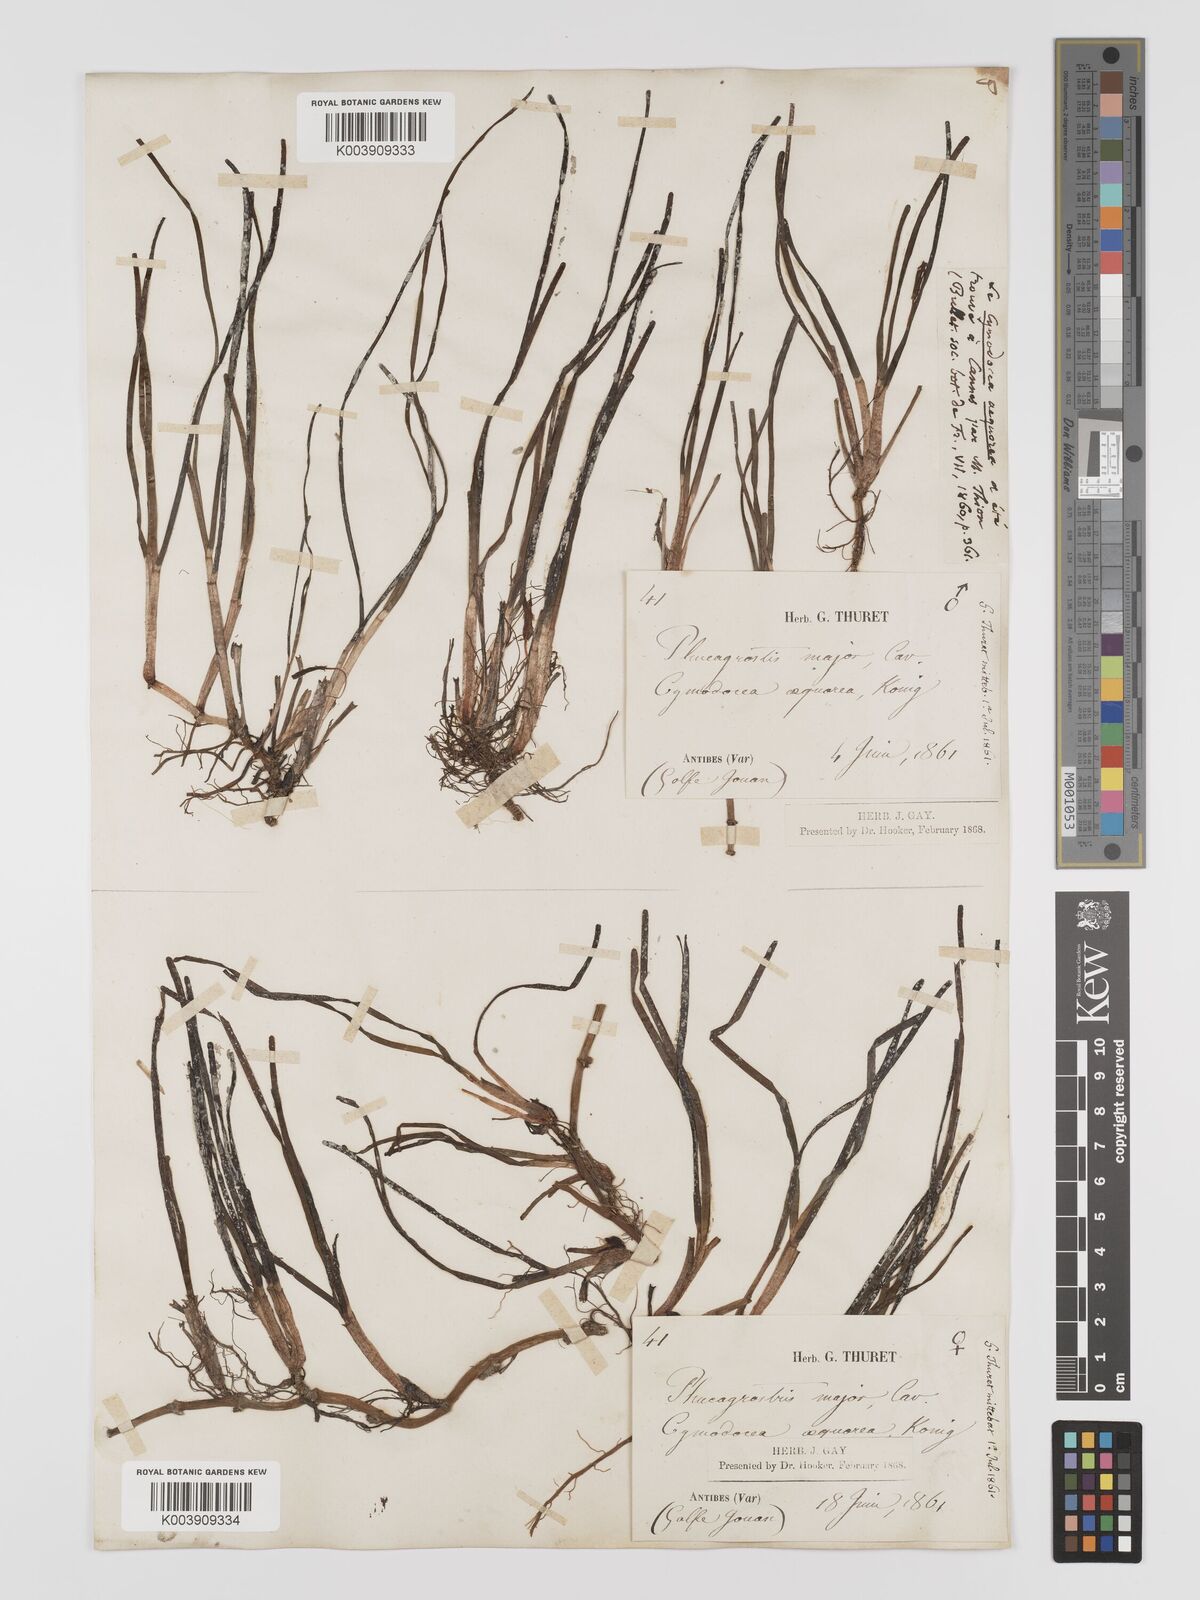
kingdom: Plantae
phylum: Tracheophyta
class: Liliopsida
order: Alismatales
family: Cymodoceaceae
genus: Cymodocea
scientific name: Cymodocea nodosa
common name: Slender seagrass
